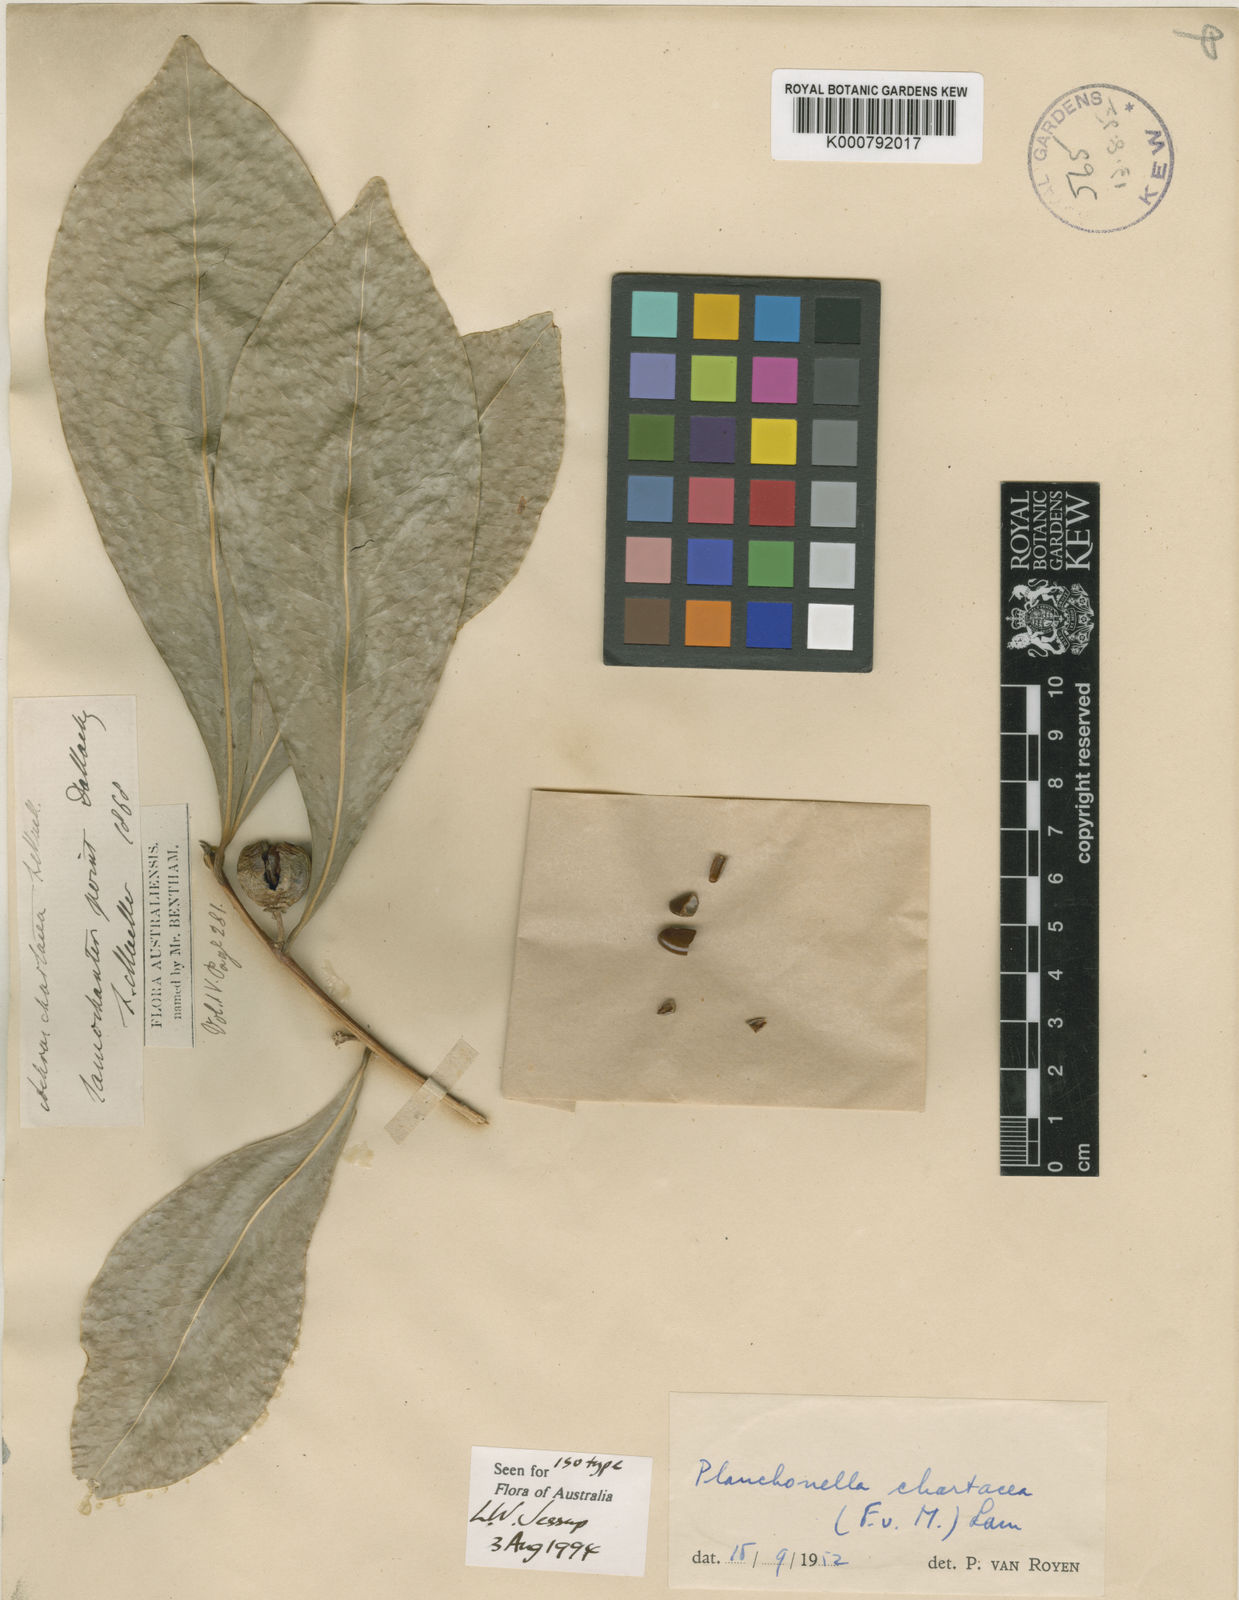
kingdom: Plantae
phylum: Tracheophyta
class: Magnoliopsida
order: Ericales
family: Sapotaceae
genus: Planchonella
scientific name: Planchonella chartacea
